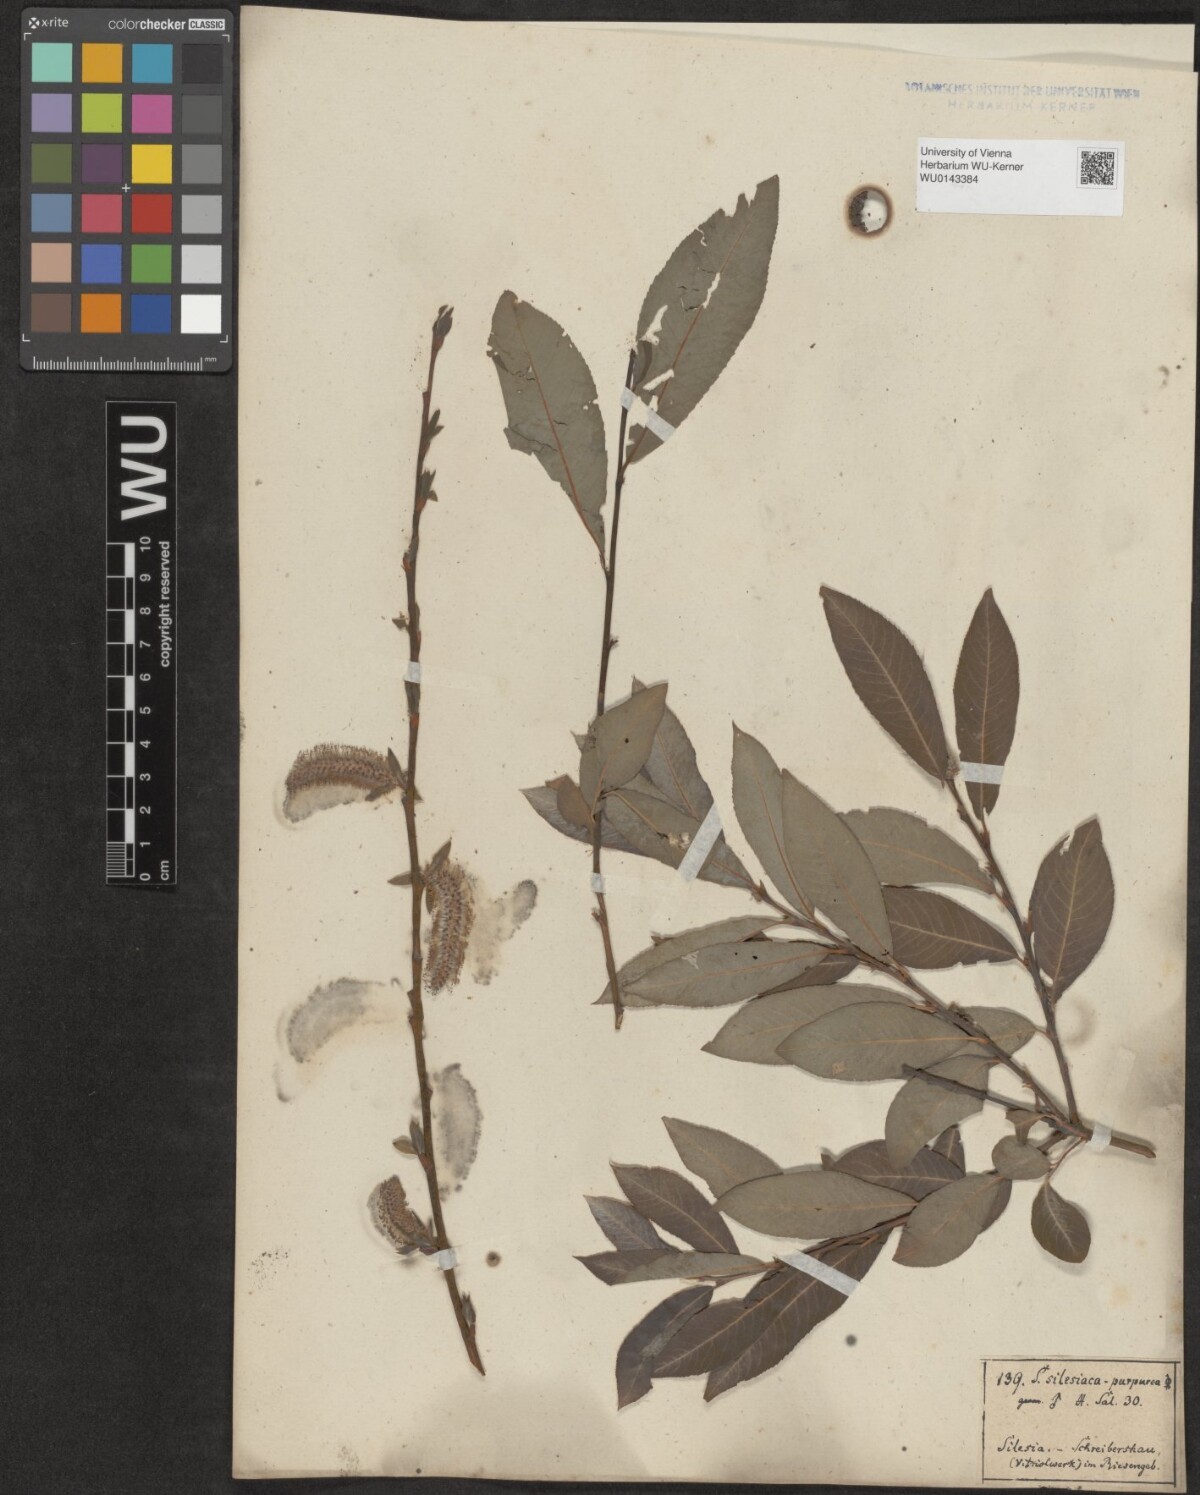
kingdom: Plantae
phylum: Tracheophyta
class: Magnoliopsida
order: Malpighiales
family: Salicaceae
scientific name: Salicaceae
